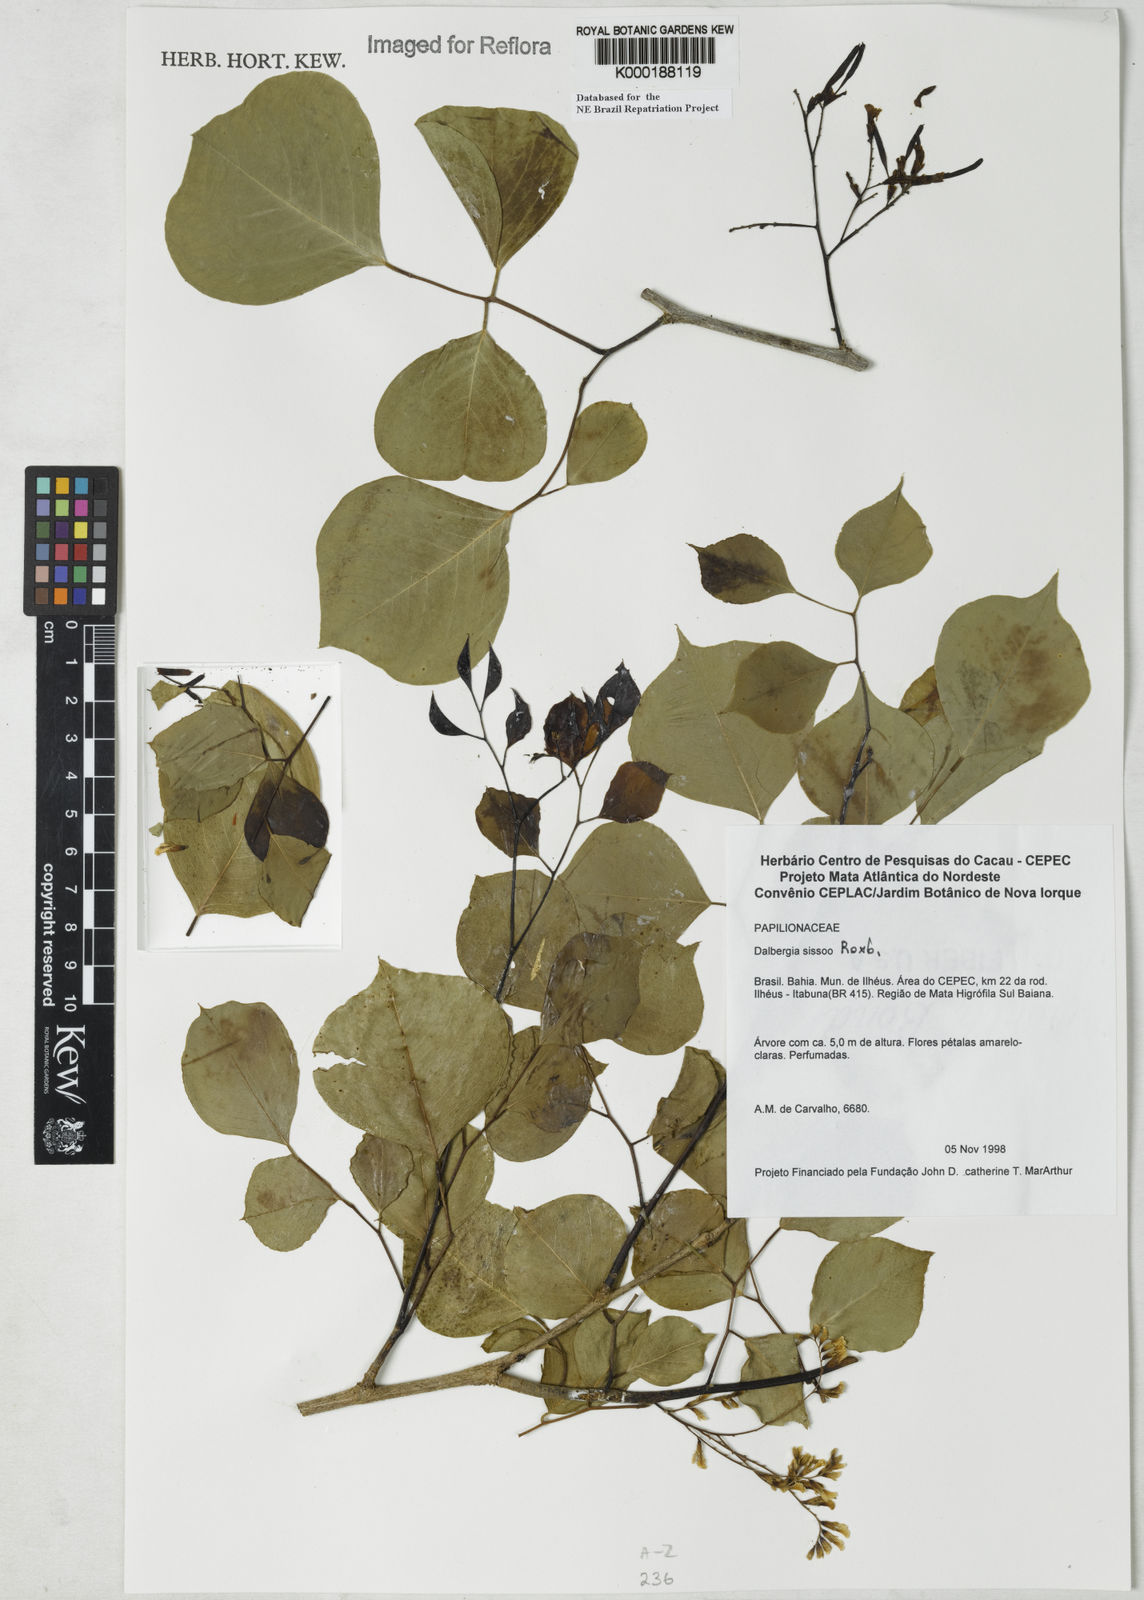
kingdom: Plantae
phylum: Tracheophyta
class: Magnoliopsida
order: Fabales
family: Fabaceae
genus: Dalbergia
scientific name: Dalbergia
